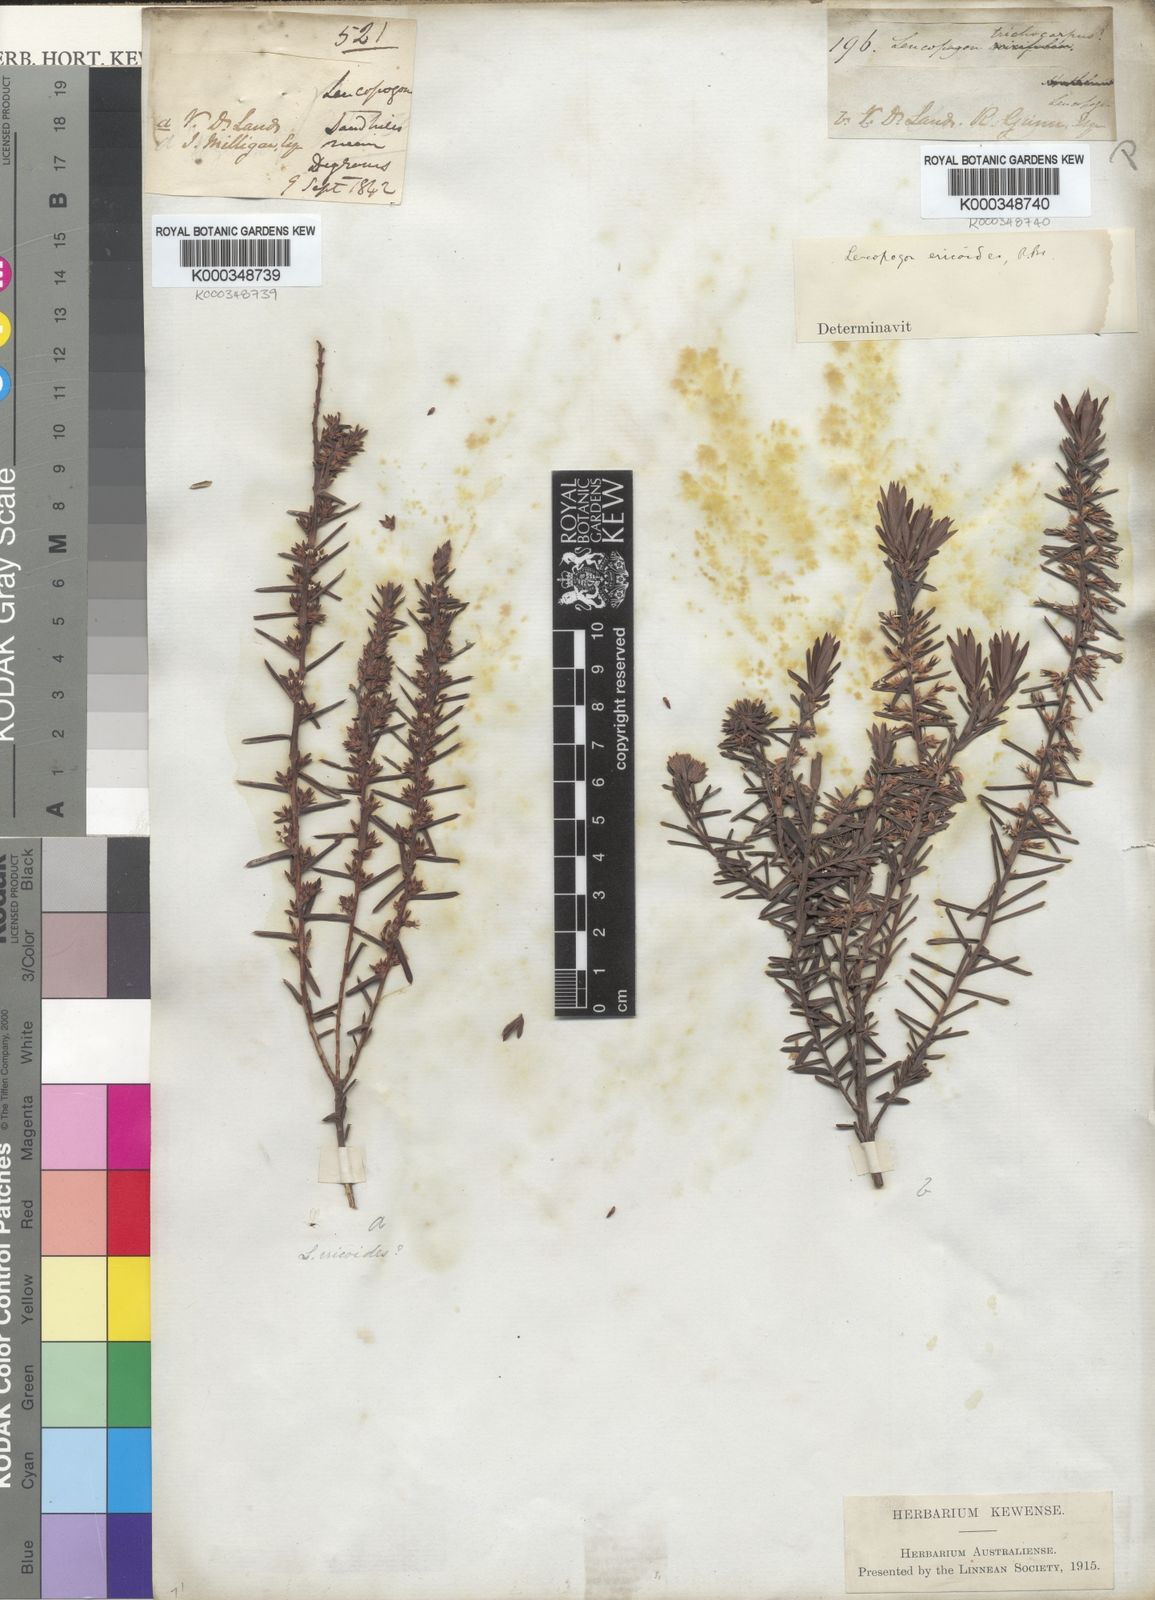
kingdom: Plantae
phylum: Tracheophyta
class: Magnoliopsida
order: Ericales
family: Ericaceae
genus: Styphelia
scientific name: Styphelia ericoides
